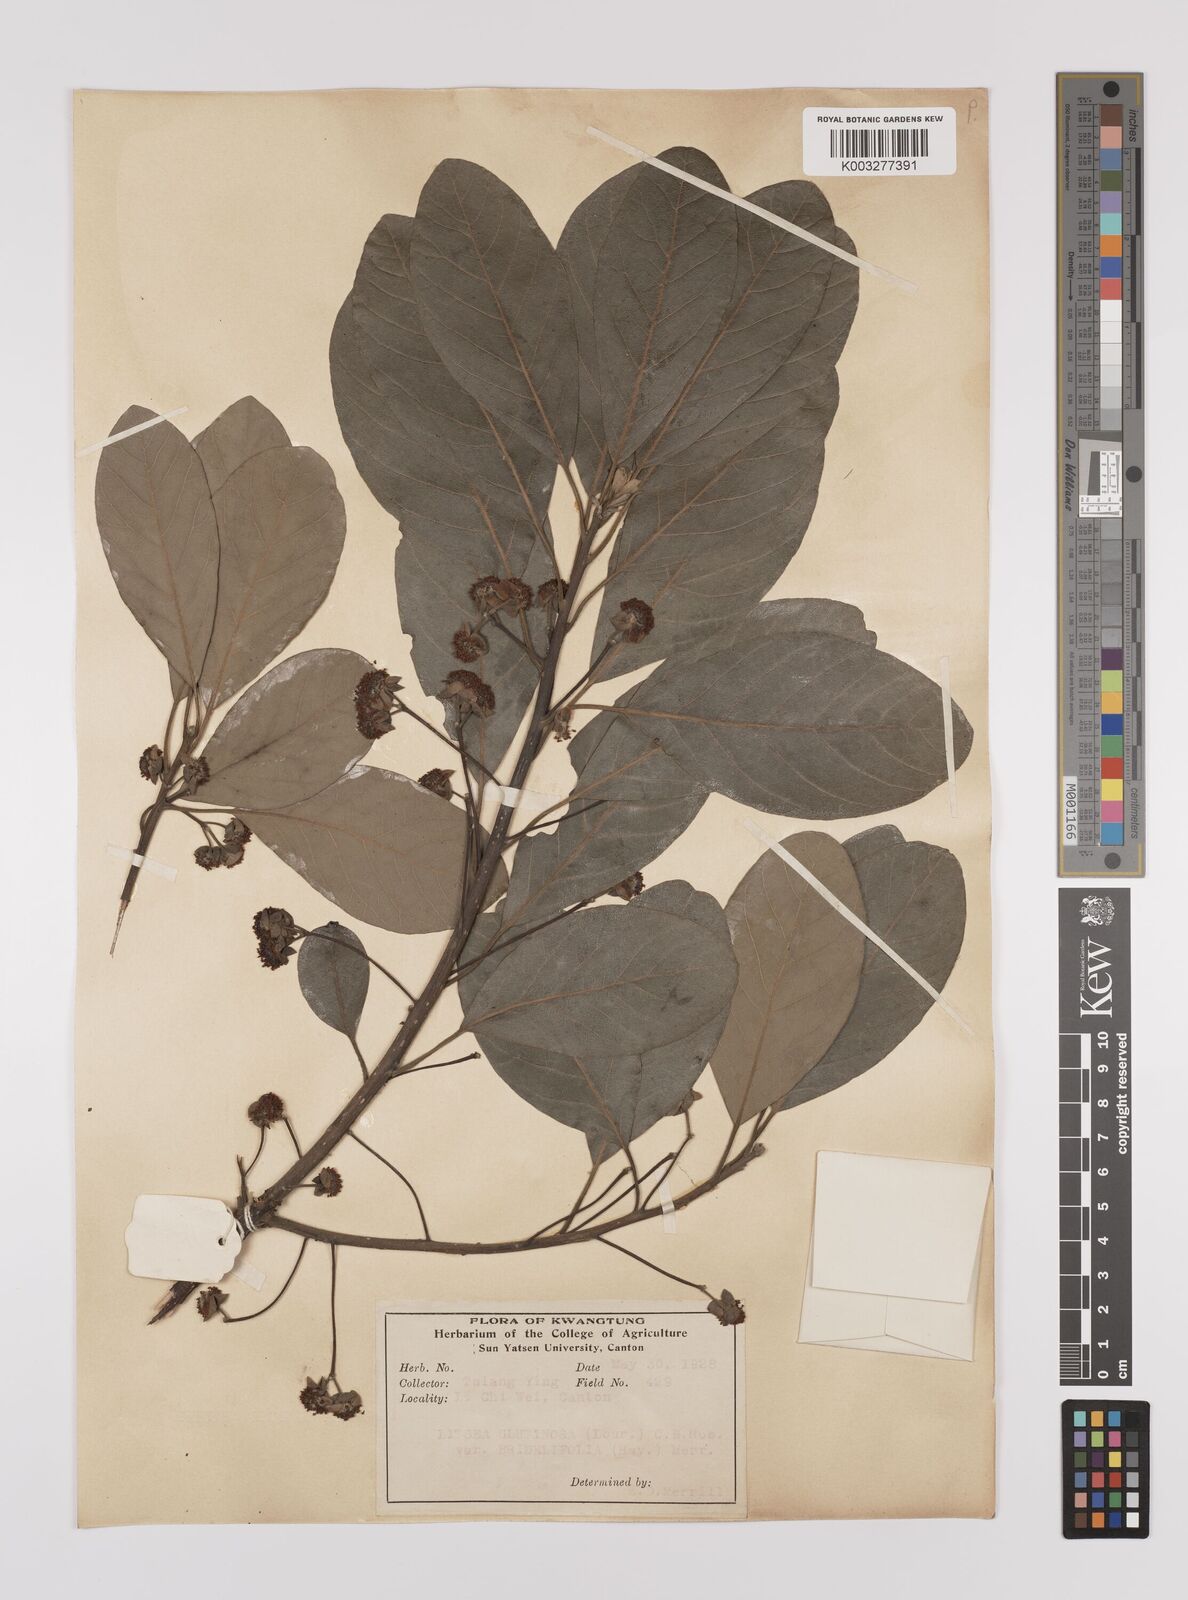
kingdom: Plantae
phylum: Tracheophyta
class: Magnoliopsida
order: Laurales
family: Lauraceae
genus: Litsea
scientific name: Litsea glutinosa
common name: Indian-laurel
